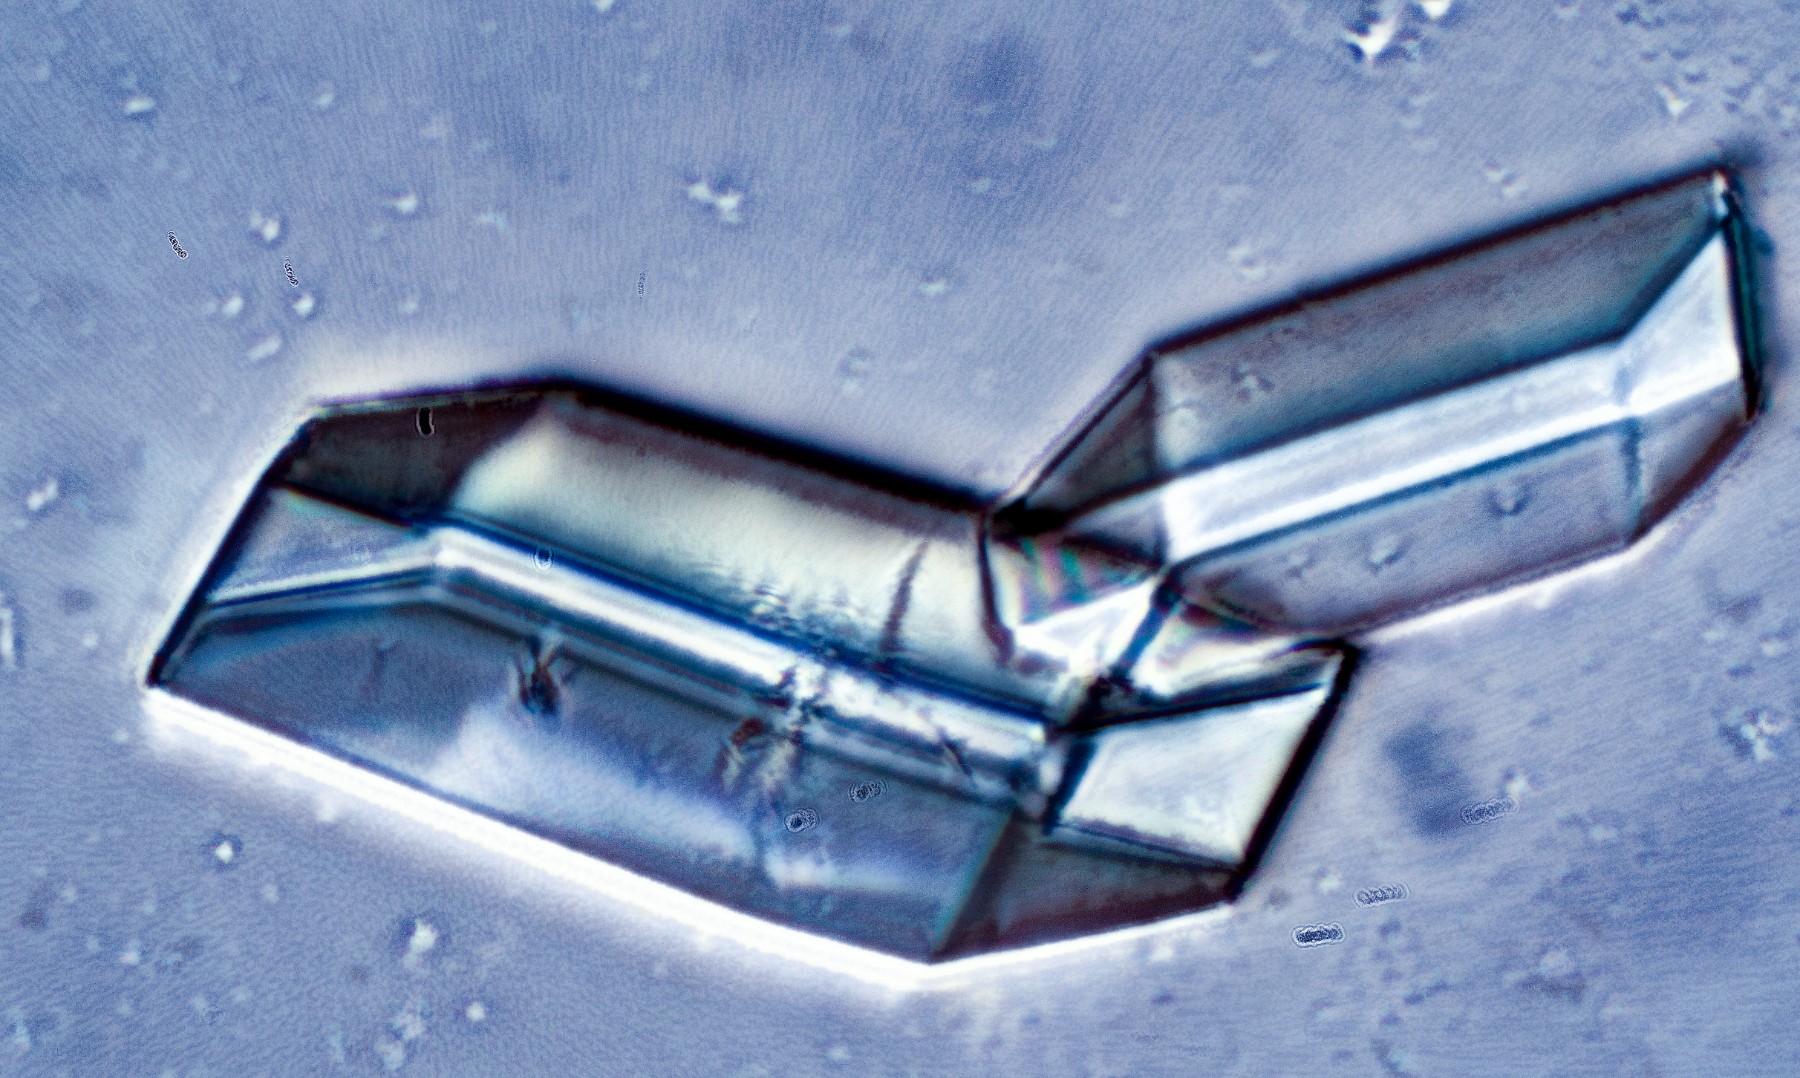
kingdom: Fungi
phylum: Ascomycota
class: Lecanoromycetes
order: Lecanorales
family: Cladoniaceae
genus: Cladonia
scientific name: Cladonia novochlorophaea
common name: sortbrun bægerlav
